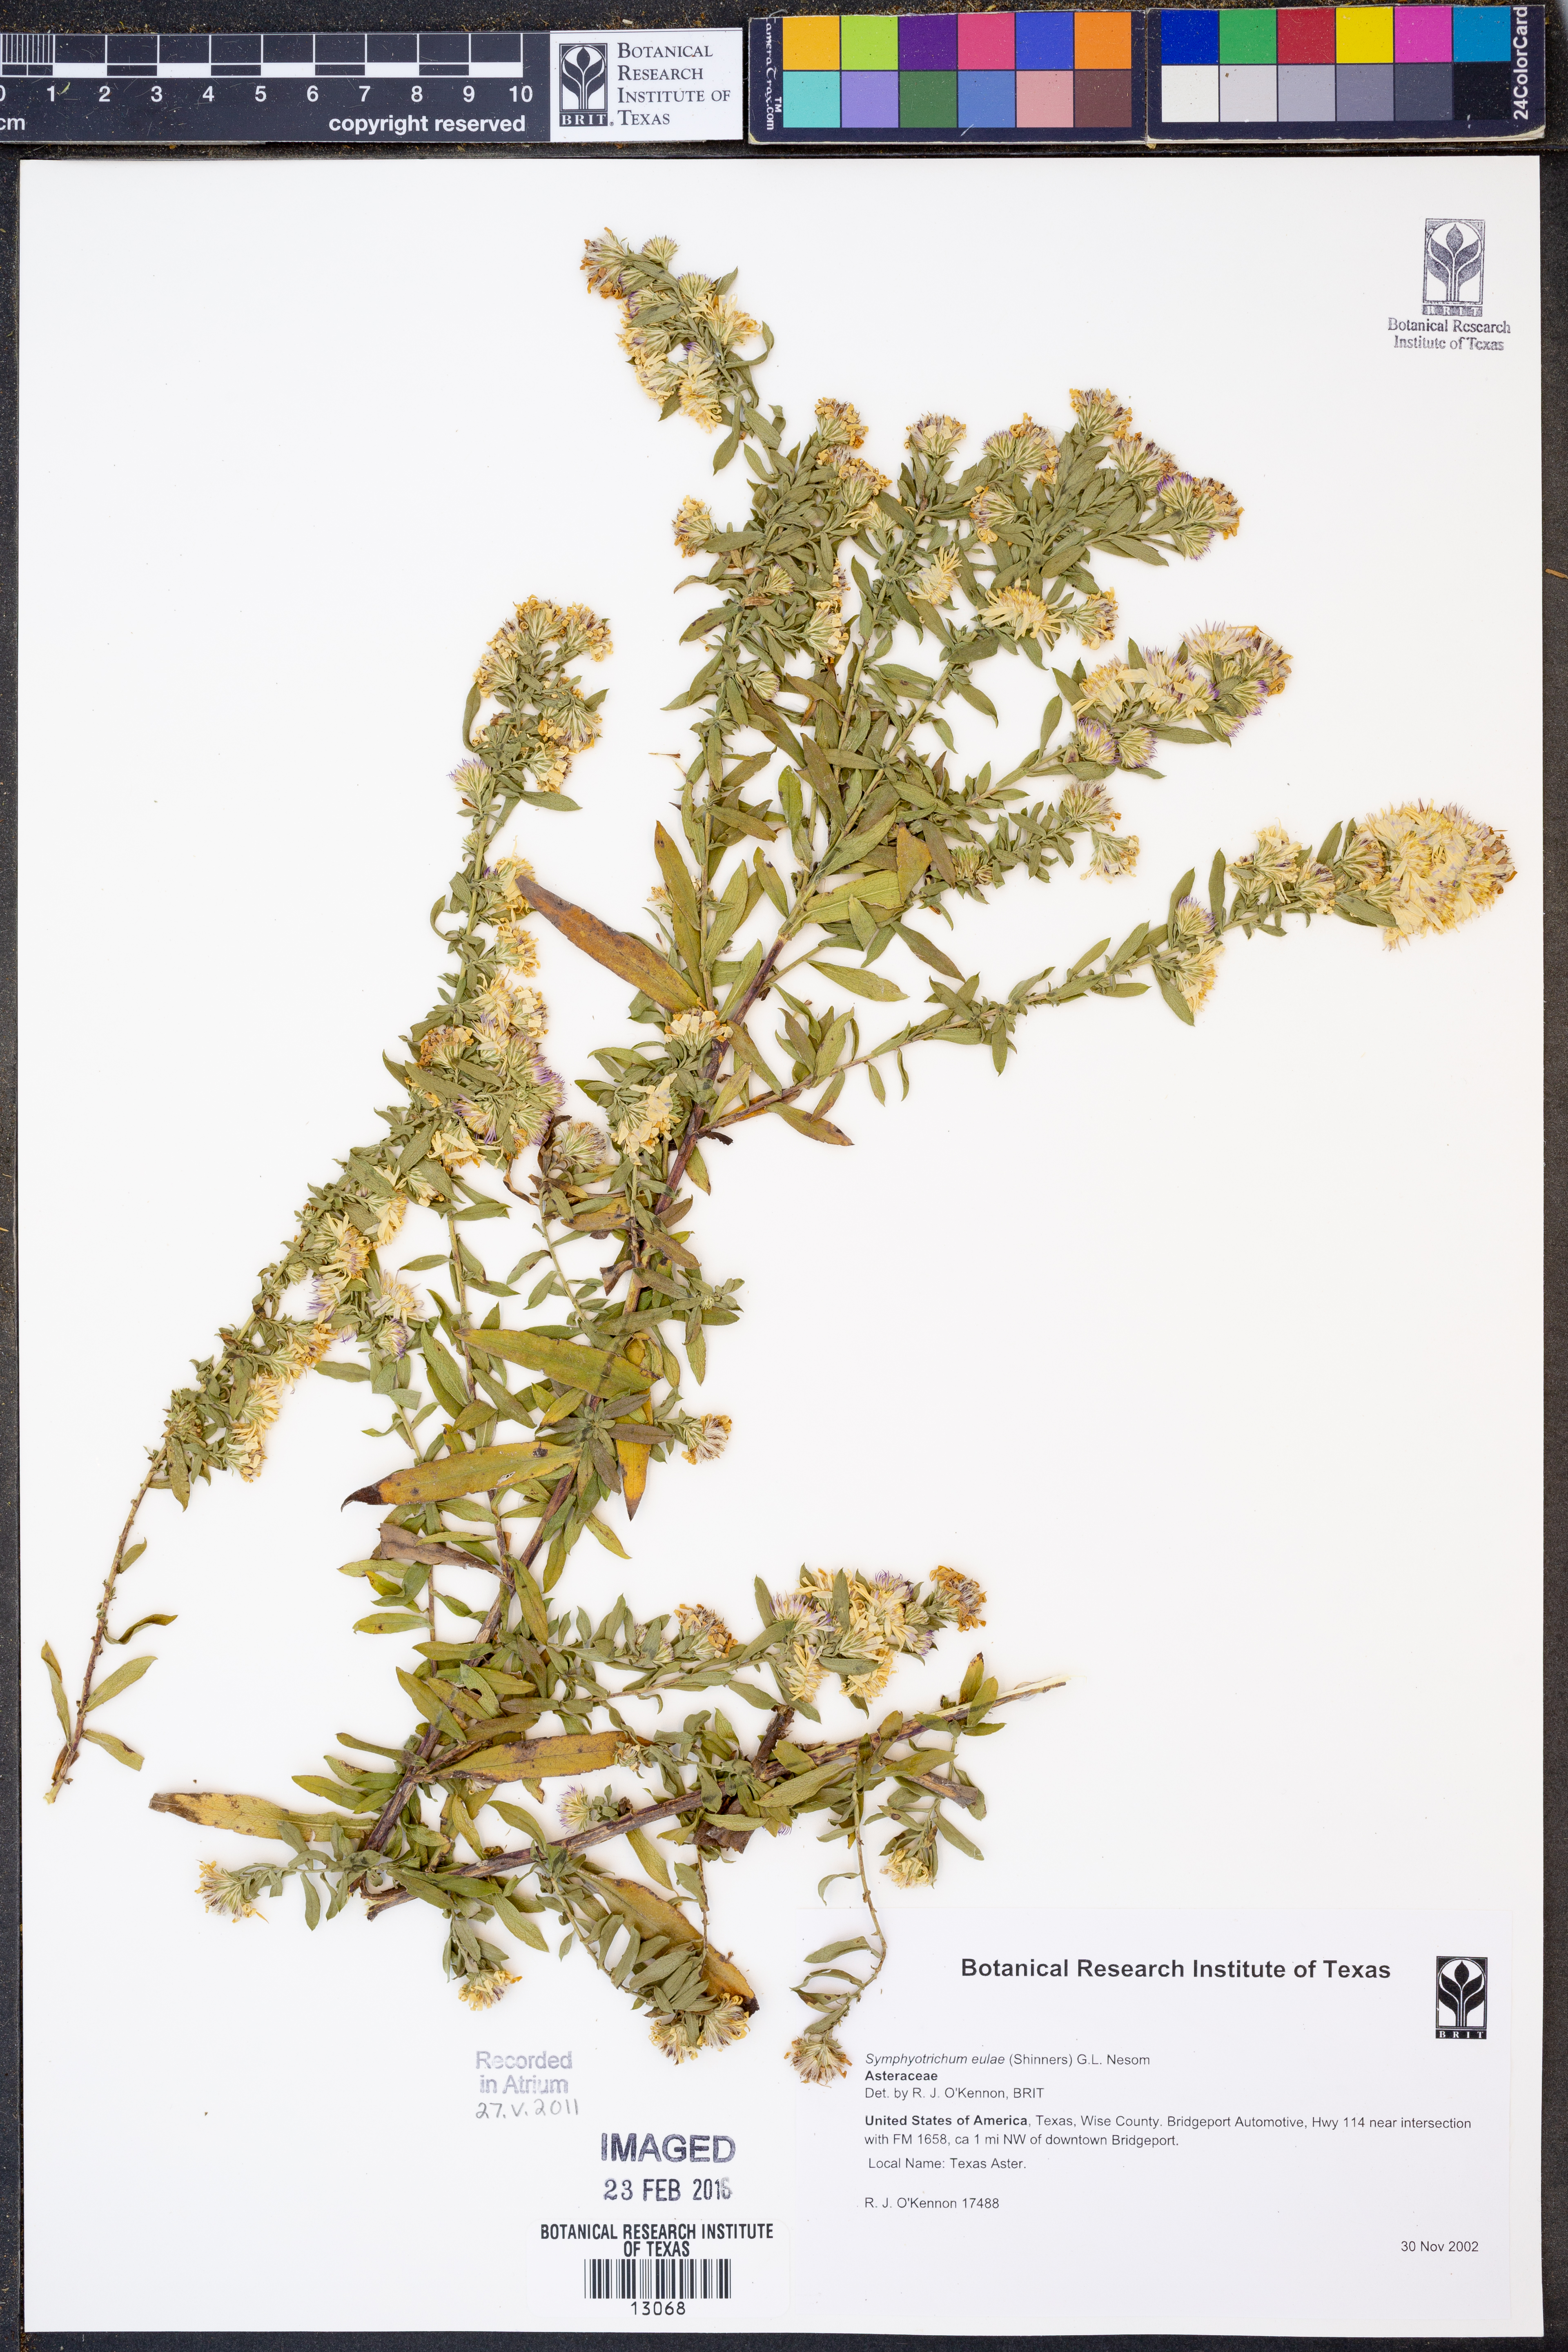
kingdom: Plantae
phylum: Tracheophyta
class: Magnoliopsida
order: Asterales
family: Asteraceae
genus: Symphyotrichum
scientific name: Symphyotrichum eulae
